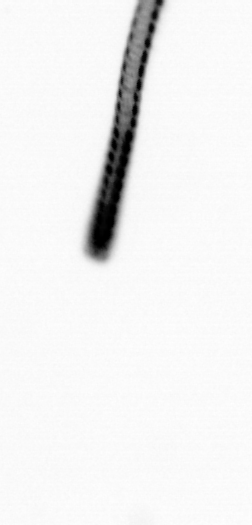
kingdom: Chromista
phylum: Ochrophyta
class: Bacillariophyceae
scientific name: Bacillariophyceae
